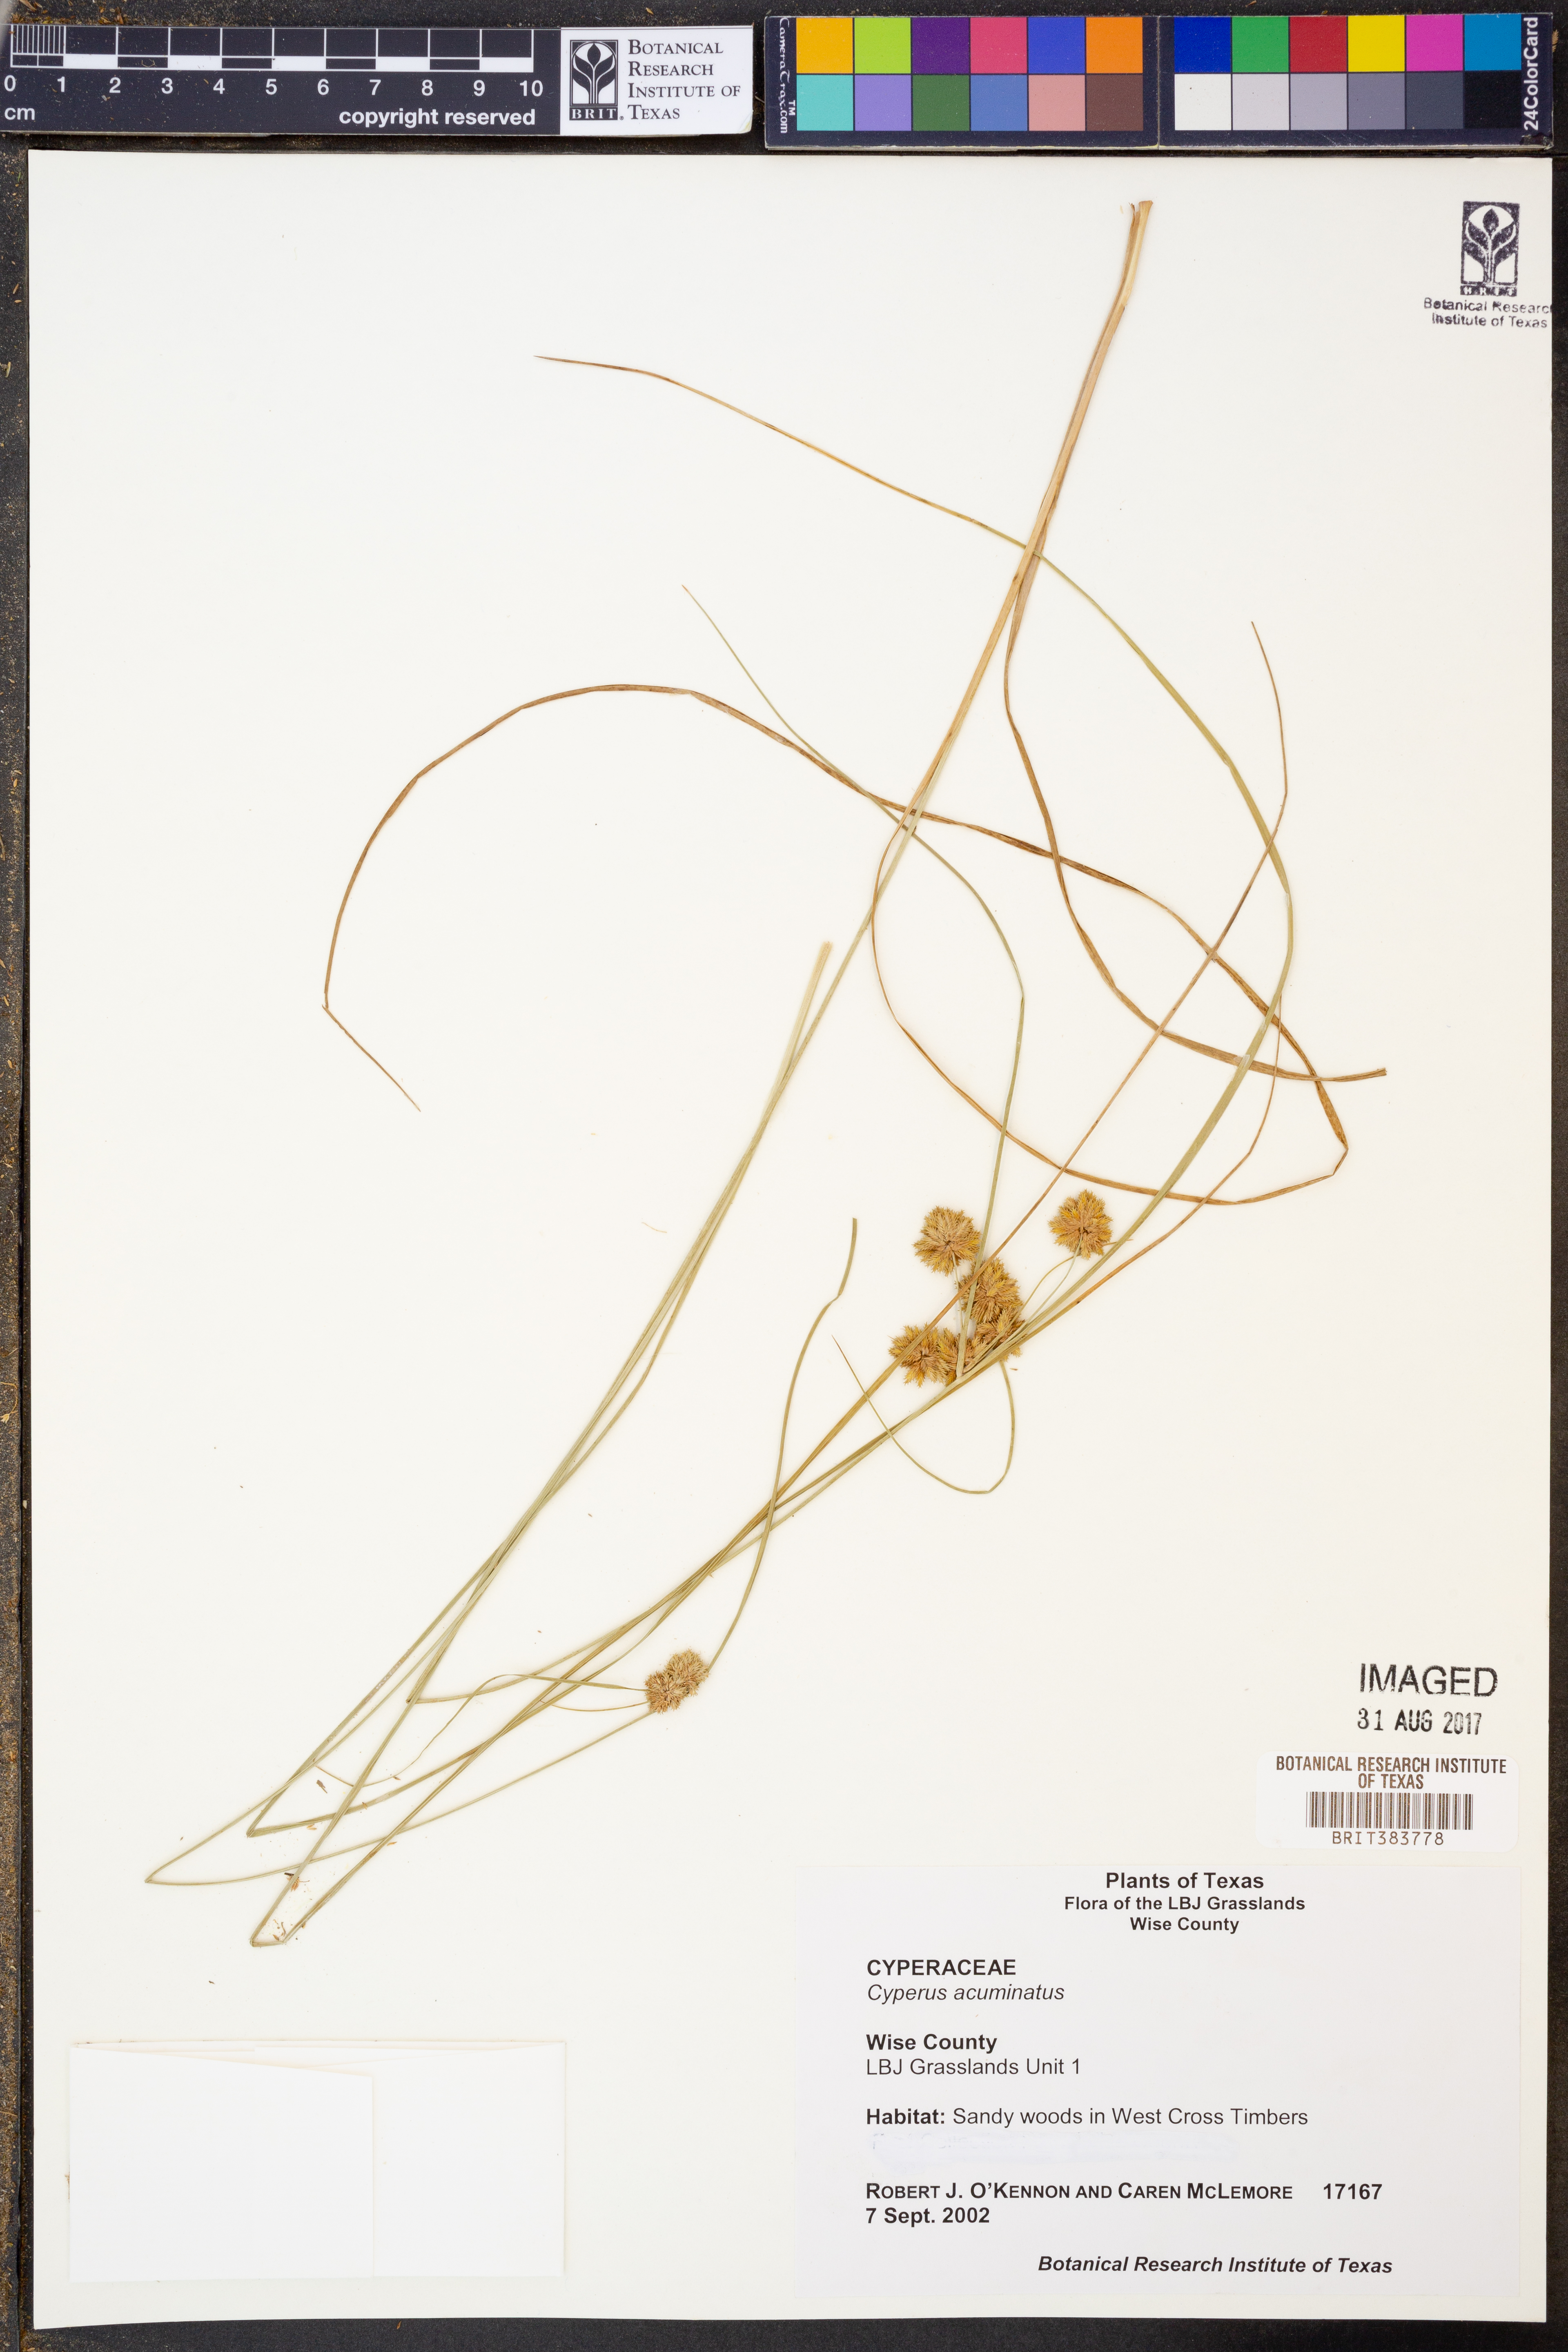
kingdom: Plantae
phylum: Tracheophyta
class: Liliopsida
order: Poales
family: Cyperaceae
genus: Cyperus
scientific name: Cyperus acuminatus
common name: Short-pointed cyperus
